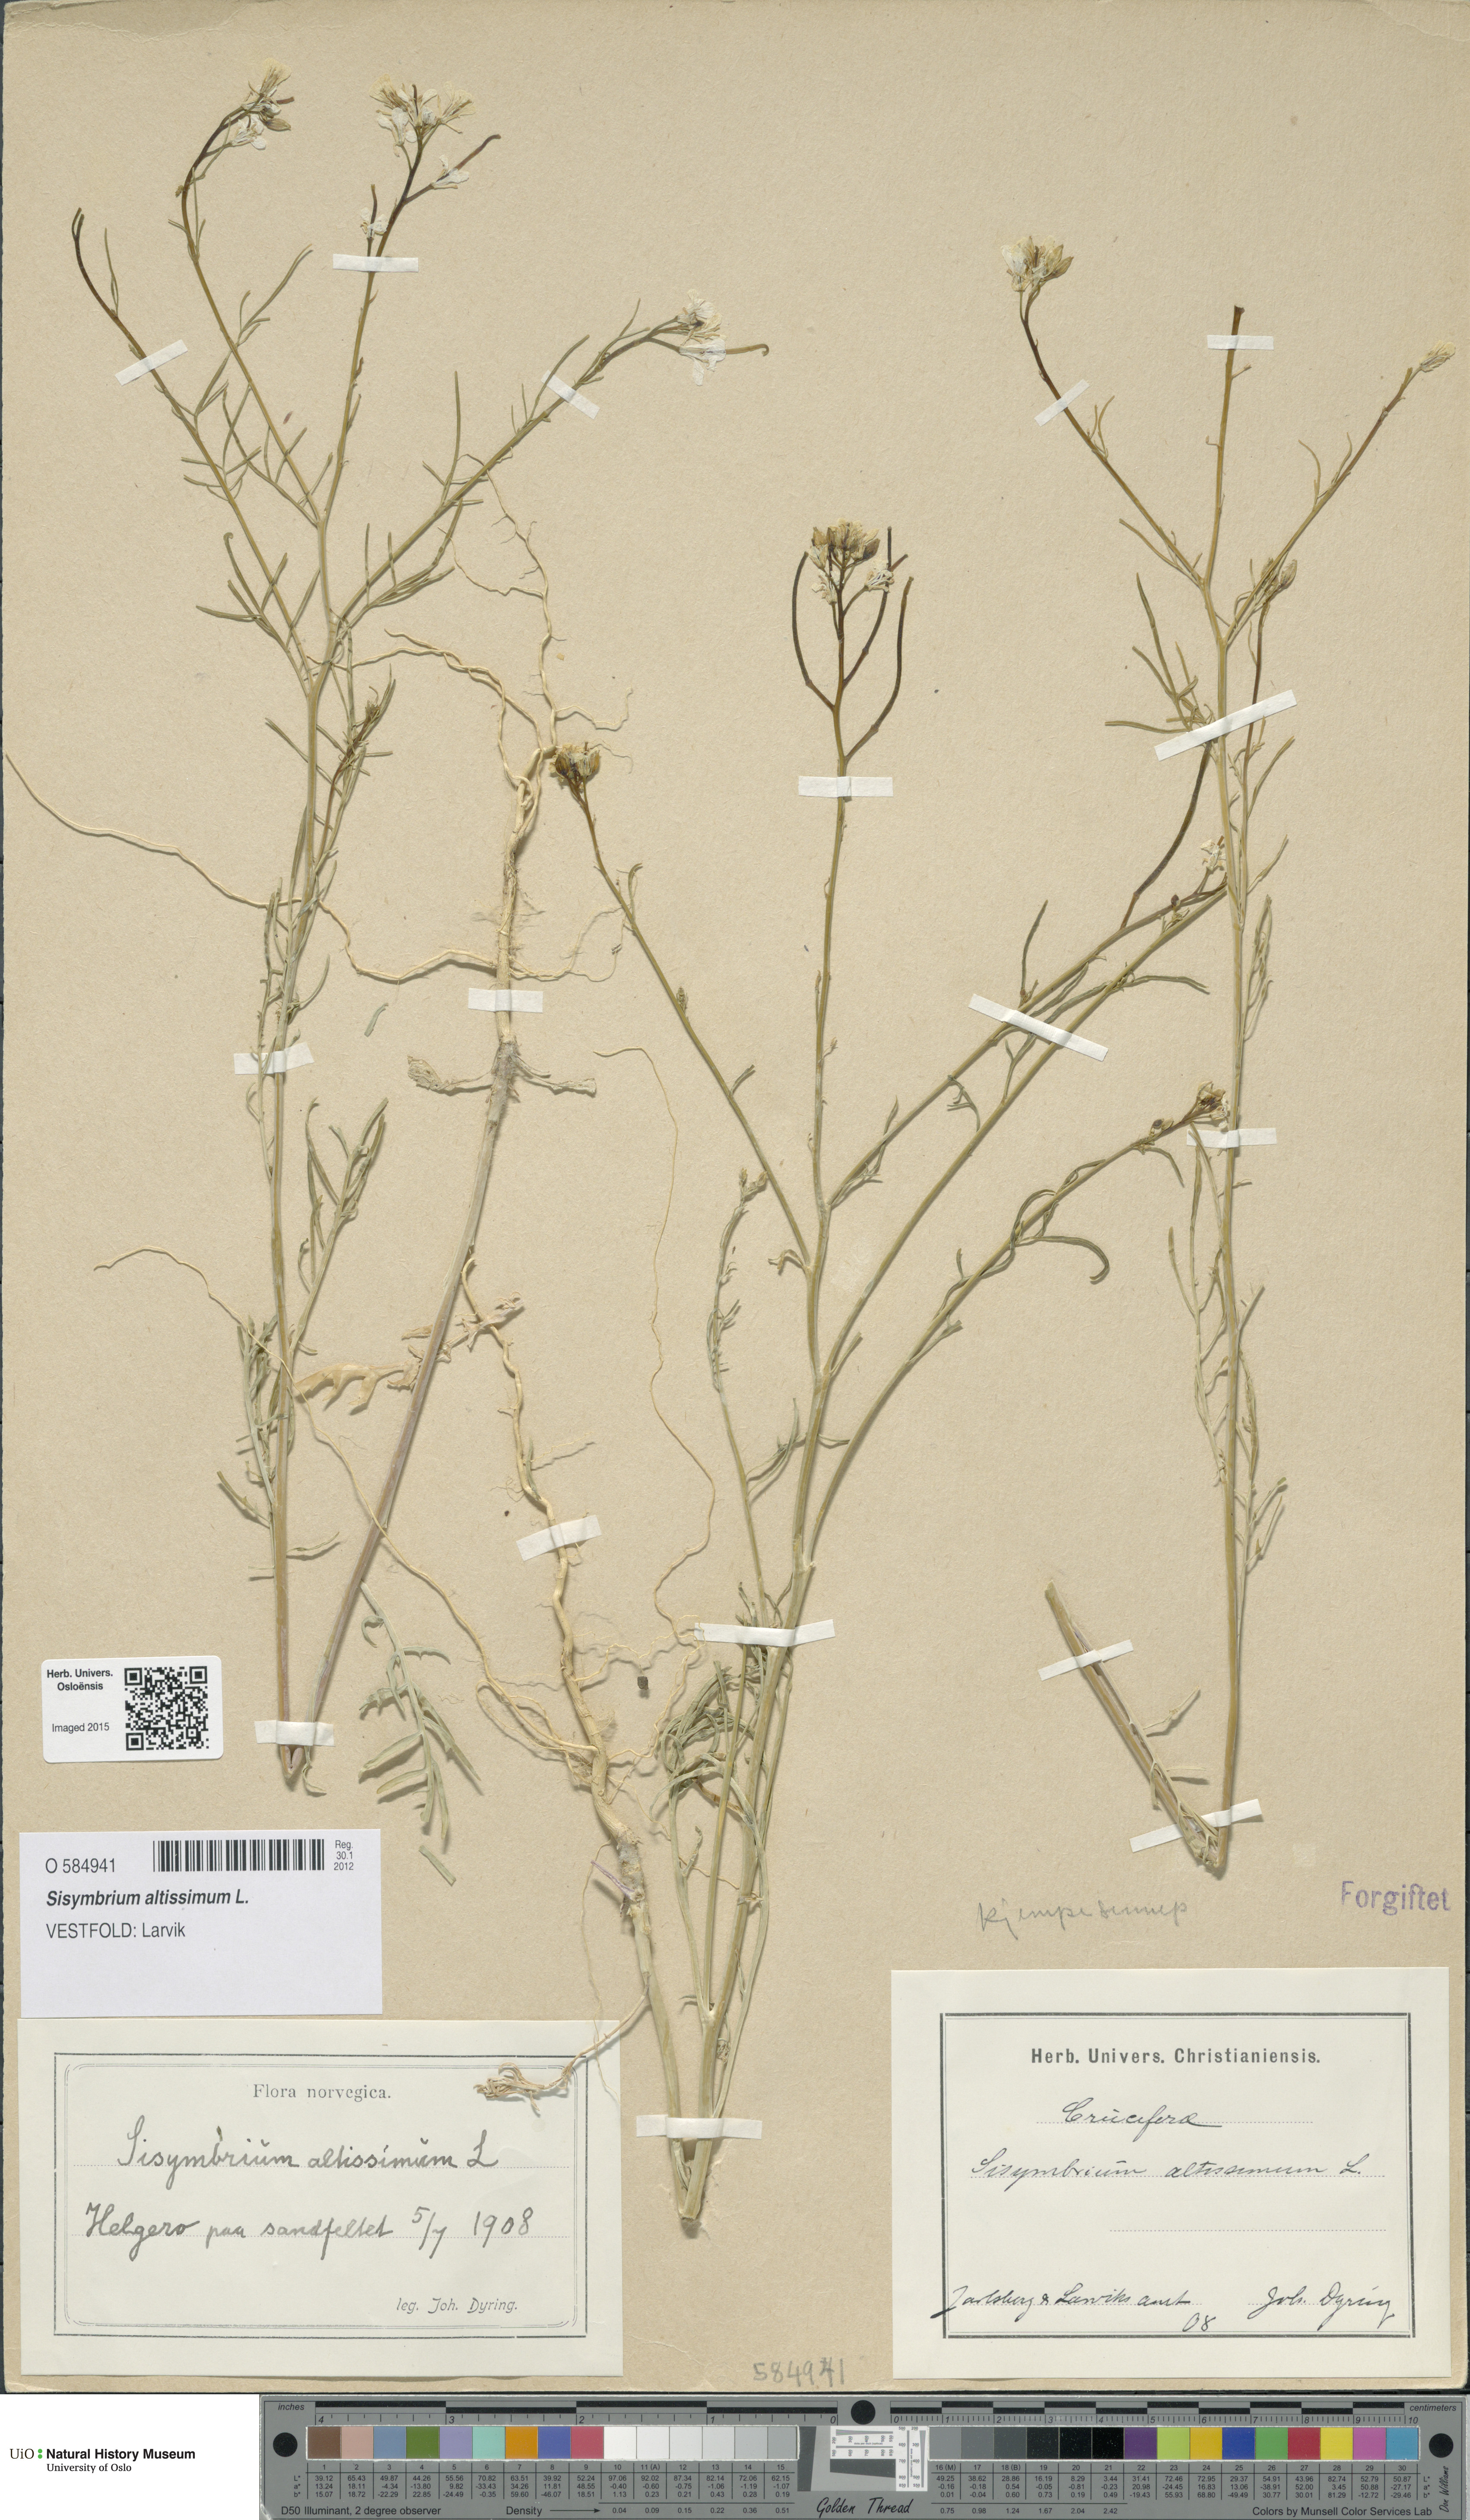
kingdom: Plantae
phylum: Tracheophyta
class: Magnoliopsida
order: Brassicales
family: Brassicaceae
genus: Sisymbrium
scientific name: Sisymbrium altissimum
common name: Tall rocket
